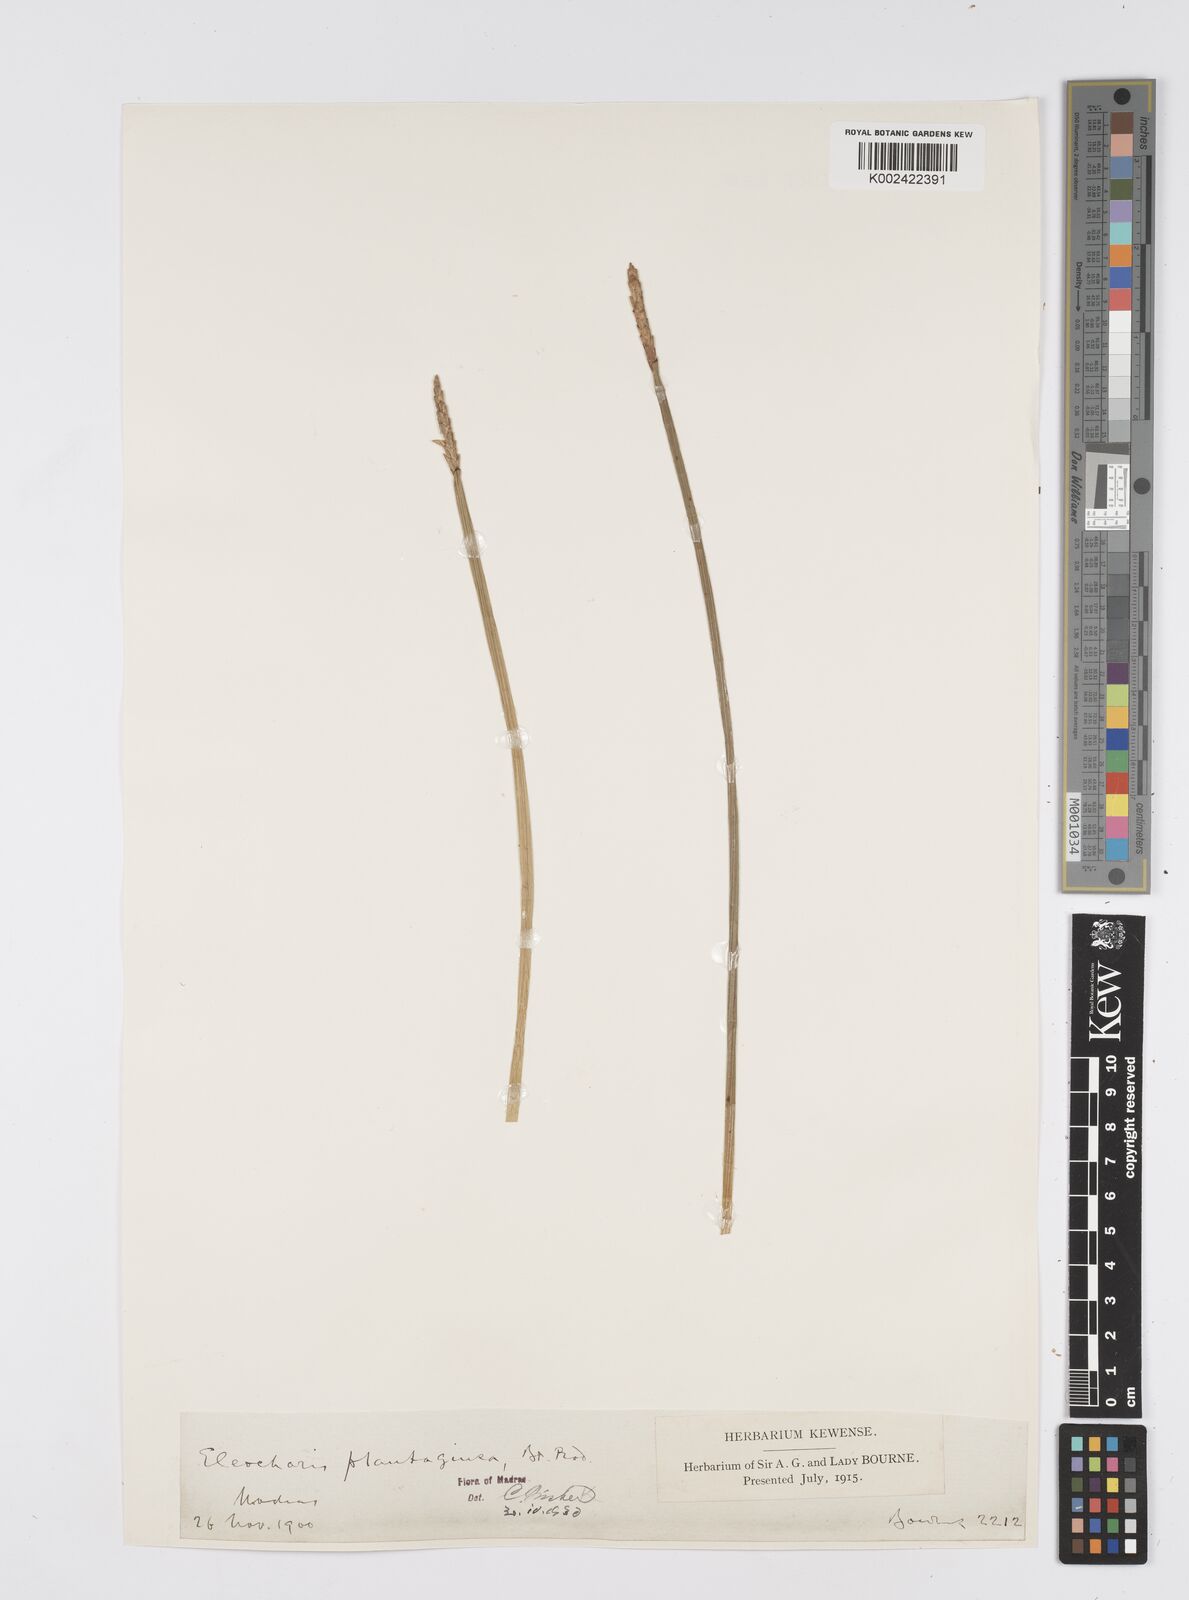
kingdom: Plantae
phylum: Tracheophyta
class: Liliopsida
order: Poales
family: Cyperaceae
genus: Eleocharis
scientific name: Eleocharis dulcis
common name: Chinese water chestnut
